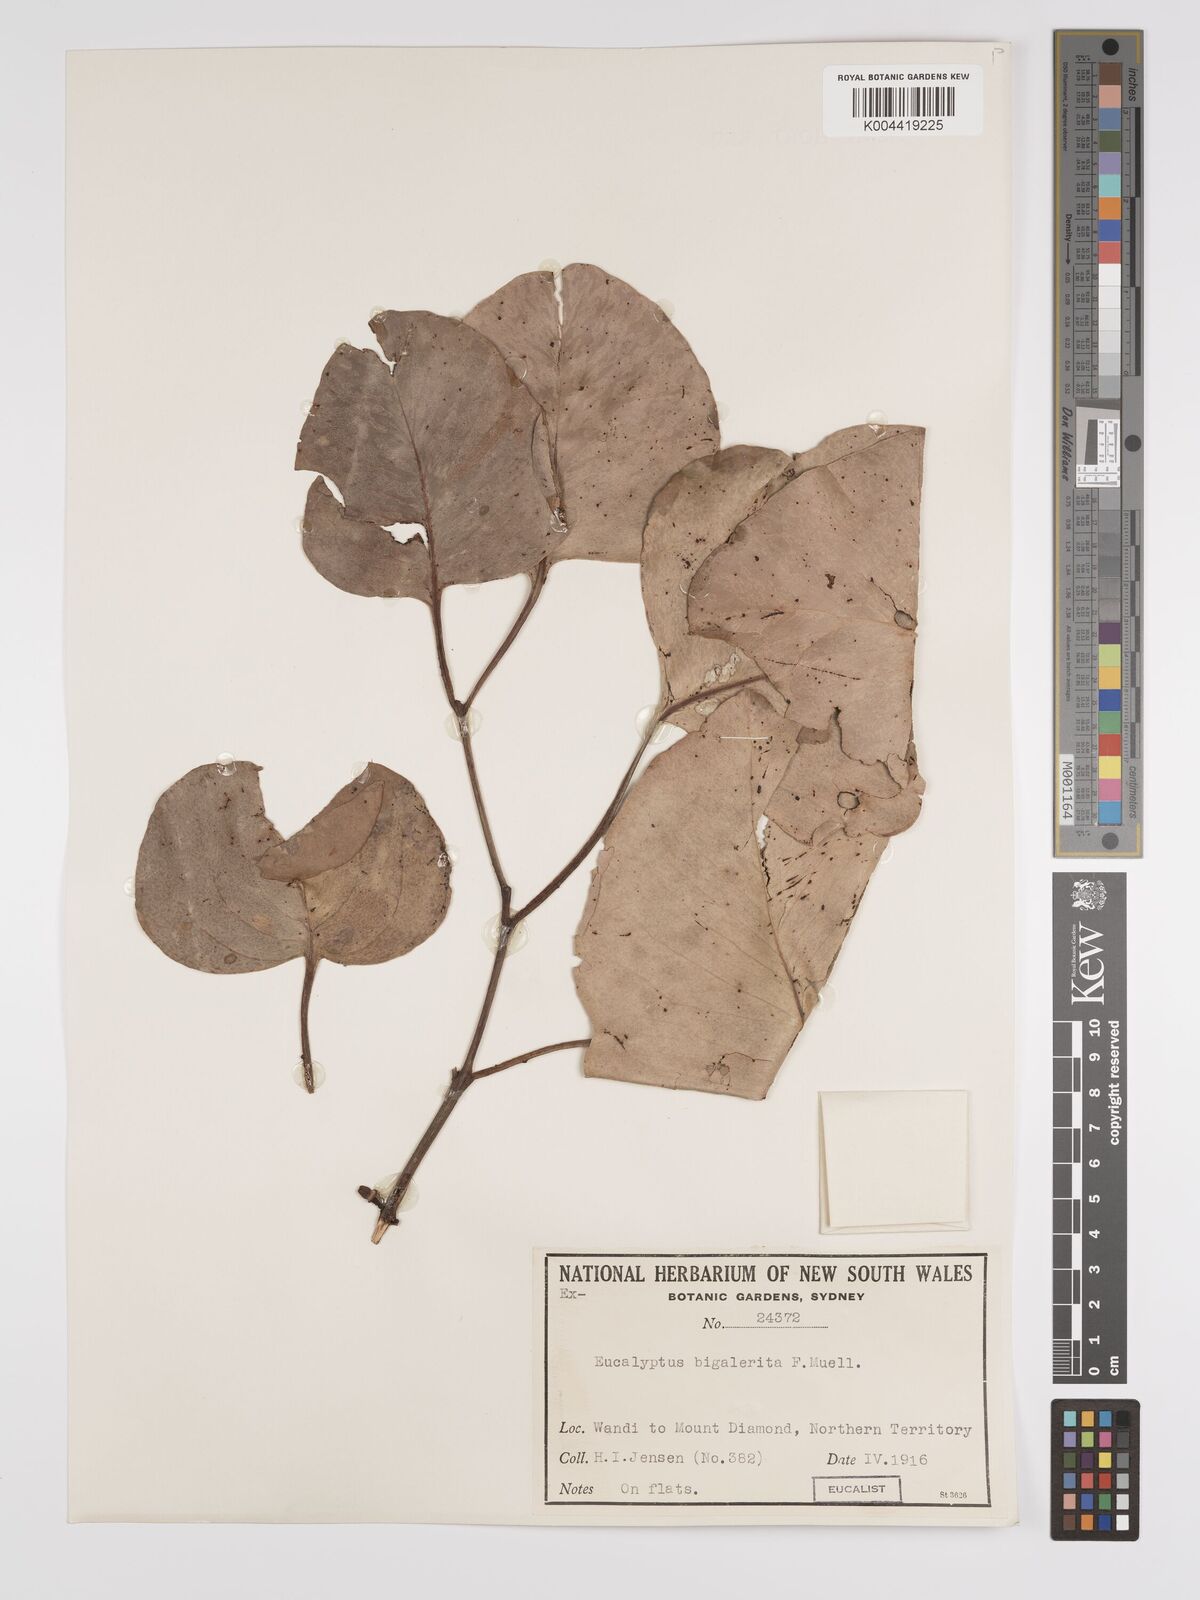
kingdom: Plantae
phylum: Tracheophyta
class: Magnoliopsida
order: Myrtales
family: Myrtaceae
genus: Eucalyptus
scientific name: Eucalyptus bigalerita
